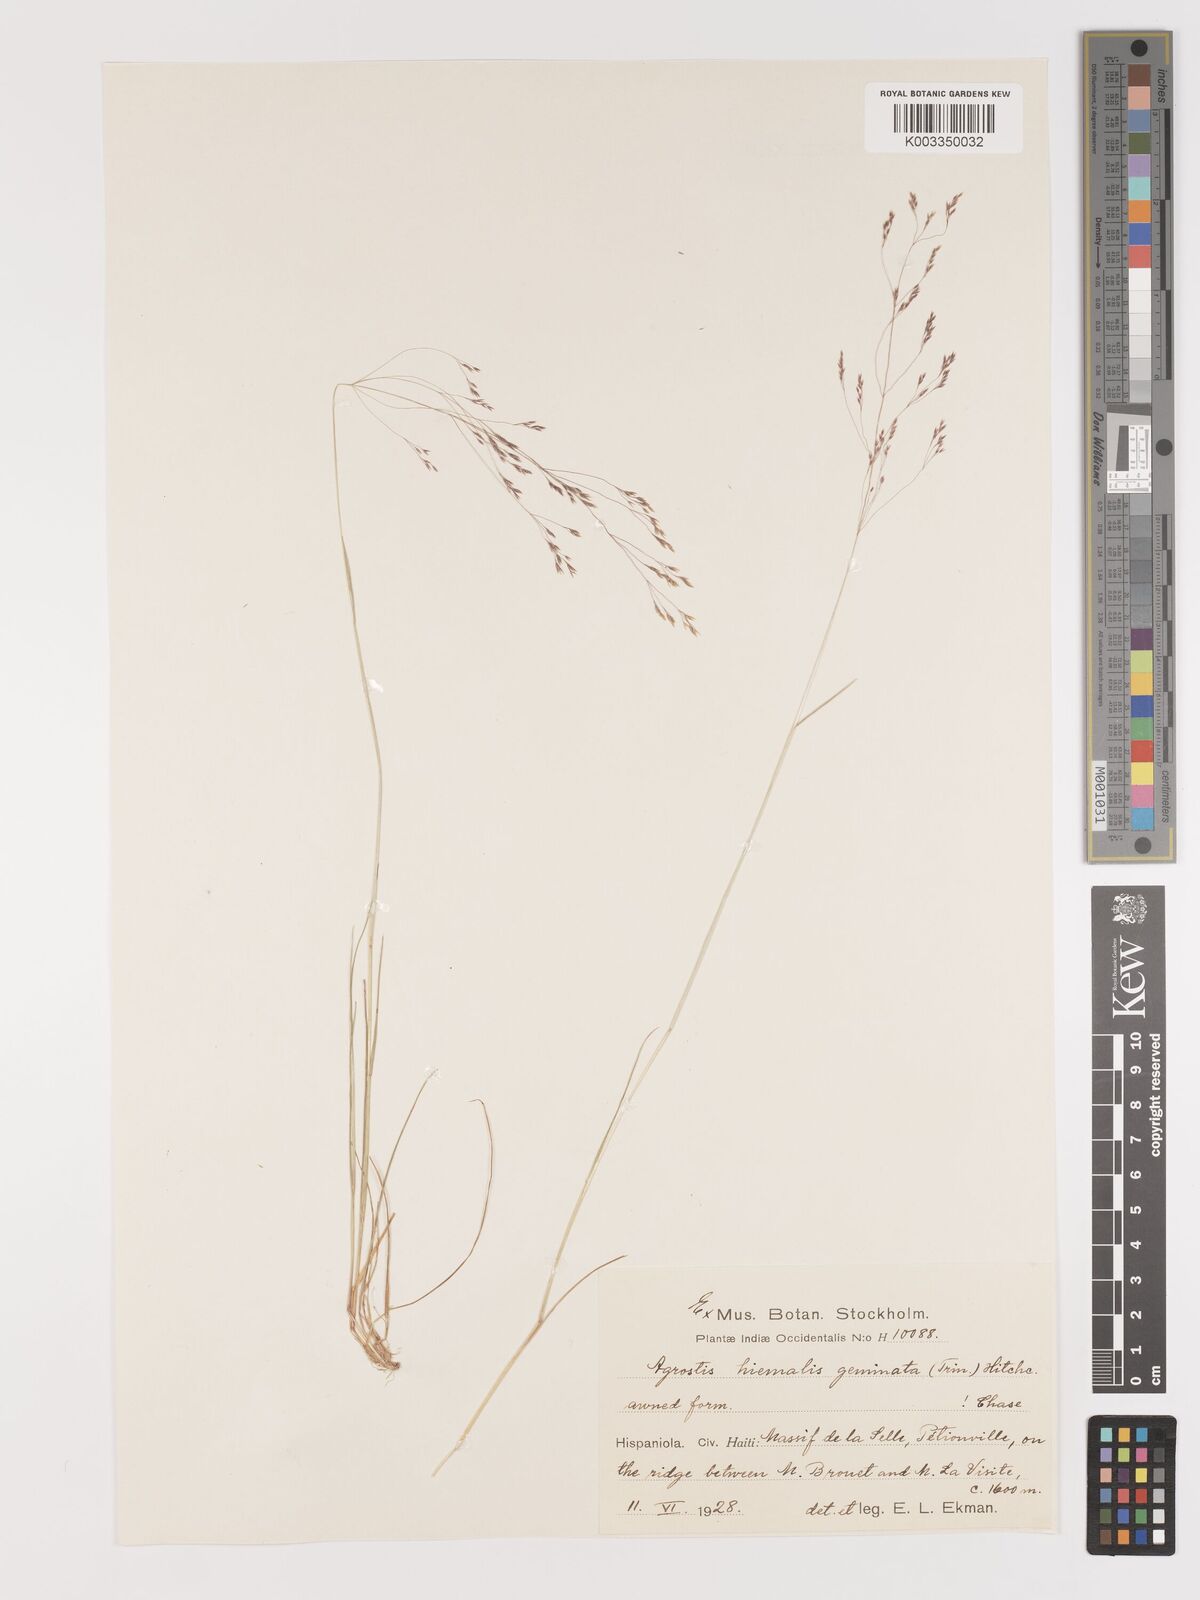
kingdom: Plantae
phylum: Tracheophyta
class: Liliopsida
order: Poales
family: Poaceae
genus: Agrostis
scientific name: Agrostis hyemalis
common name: Small bent
